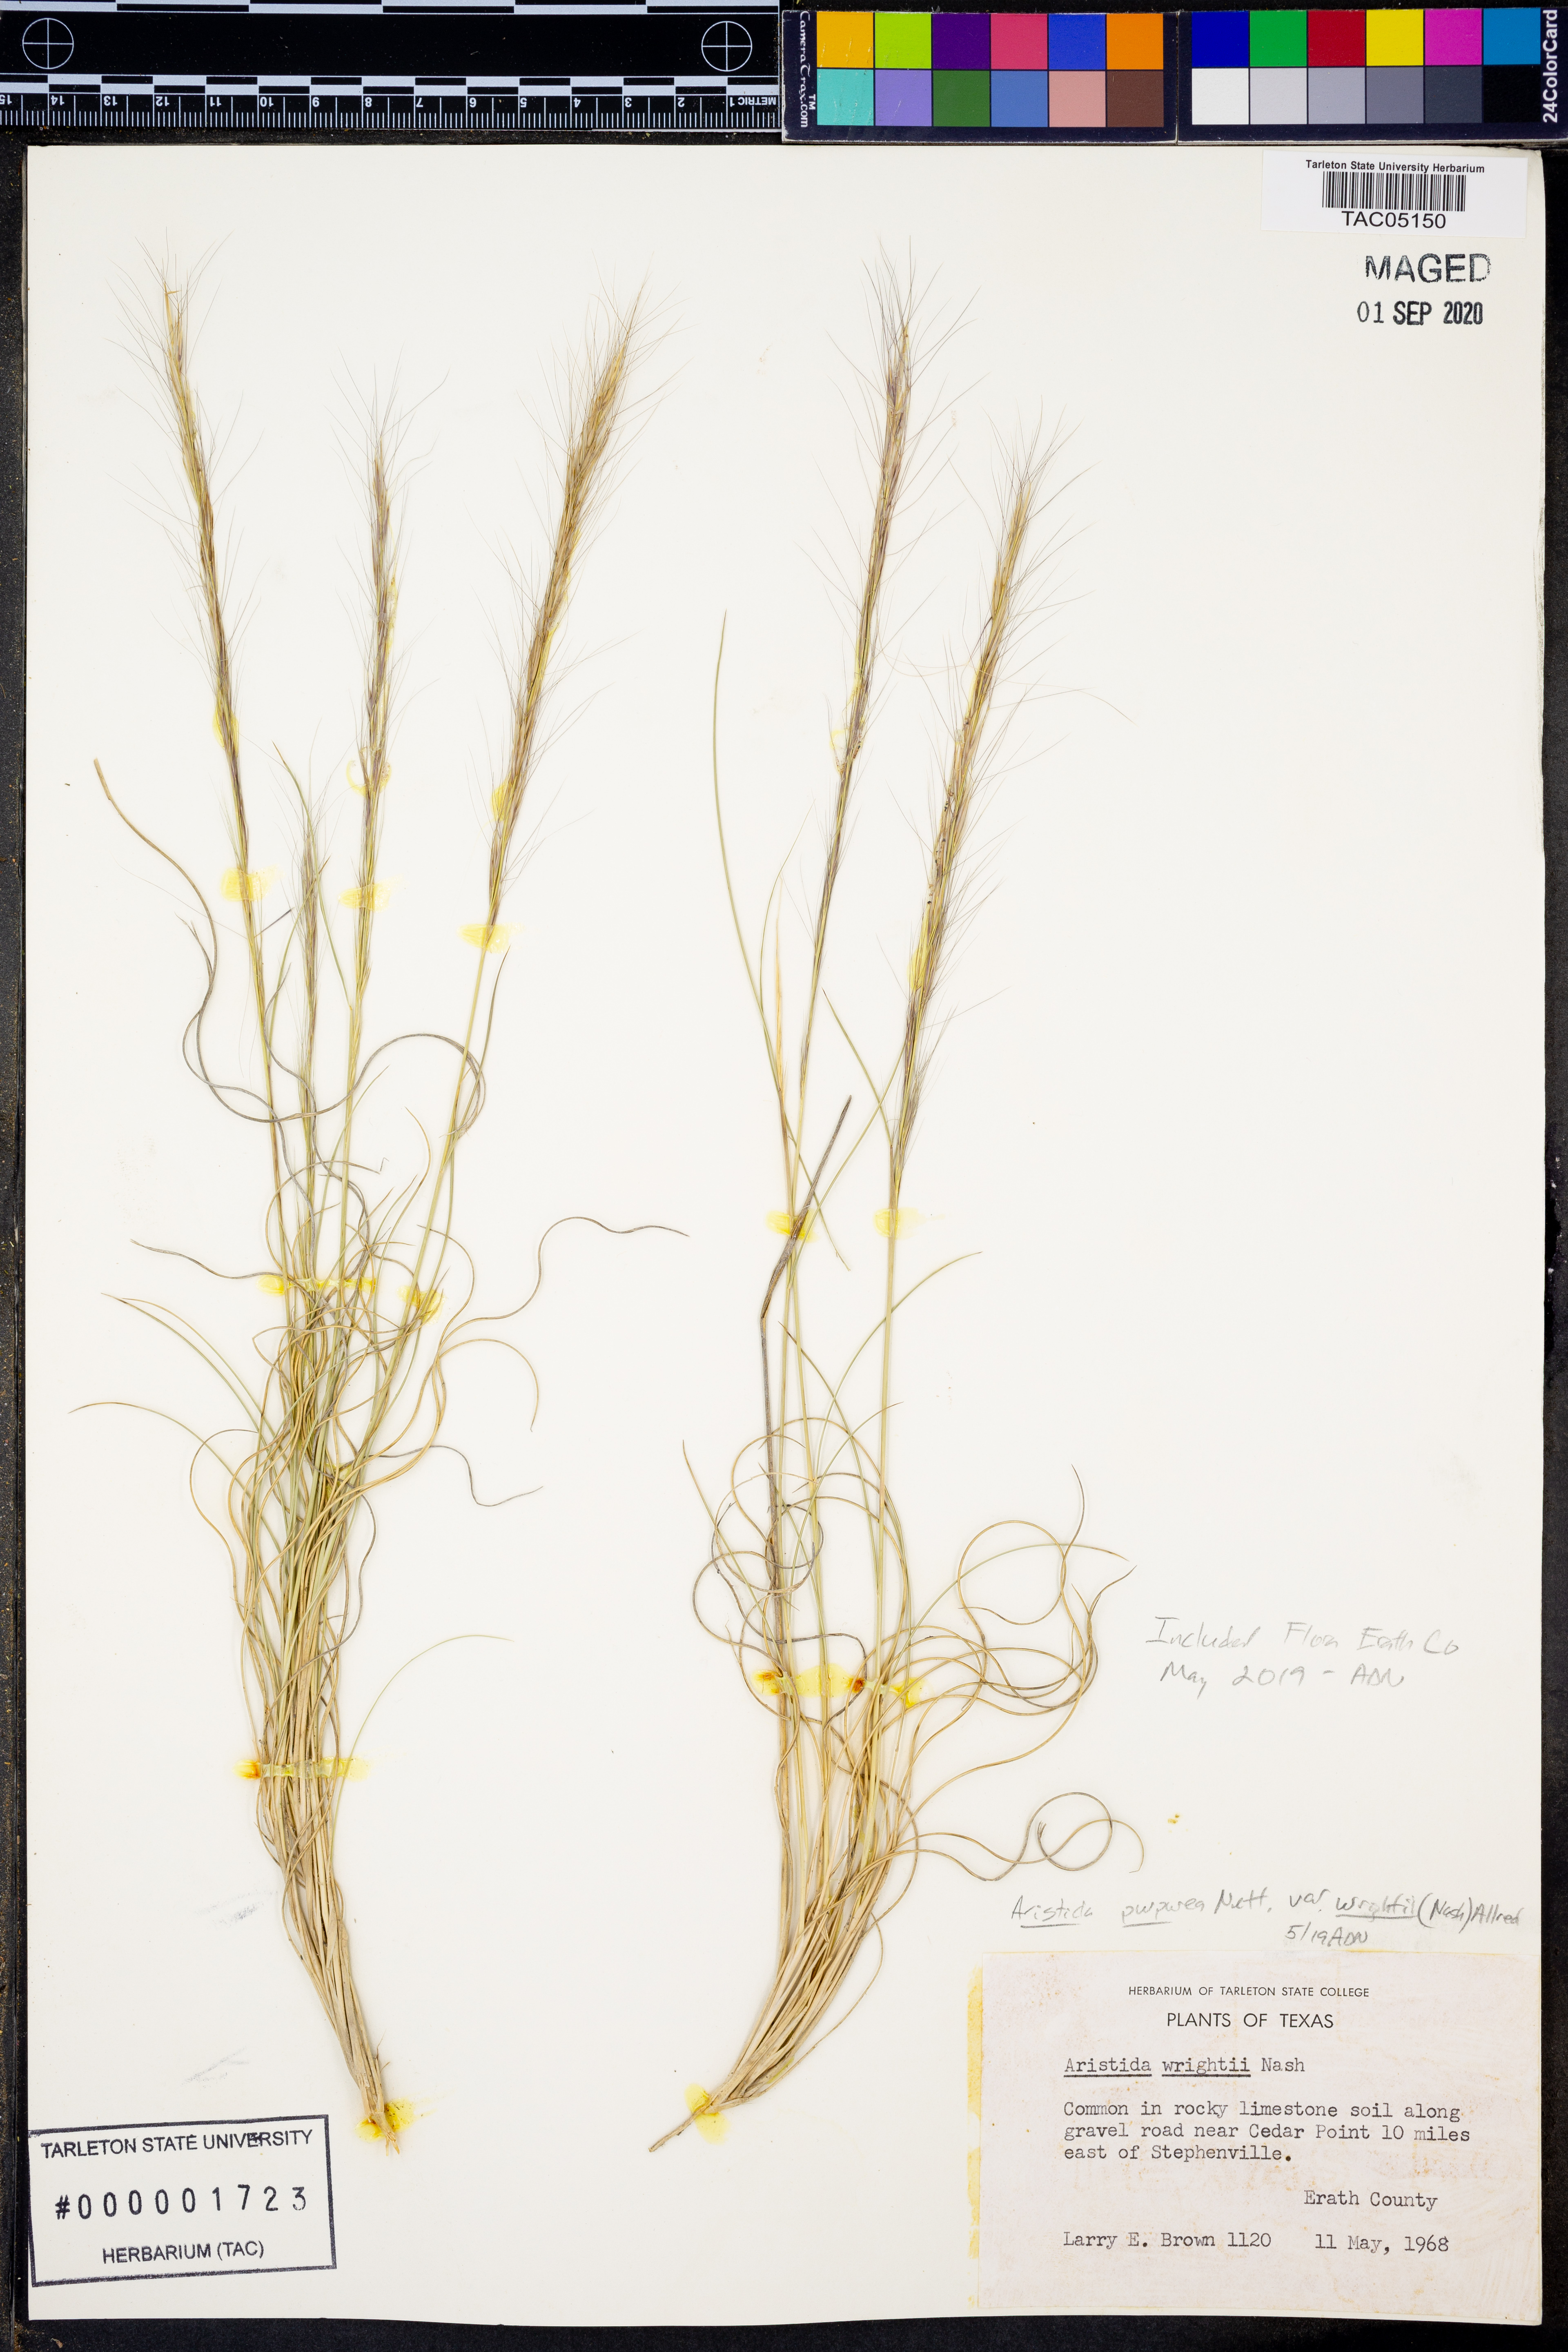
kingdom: Plantae
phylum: Tracheophyta
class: Liliopsida
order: Poales
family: Poaceae
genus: Aristida
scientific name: Aristida wrightii
